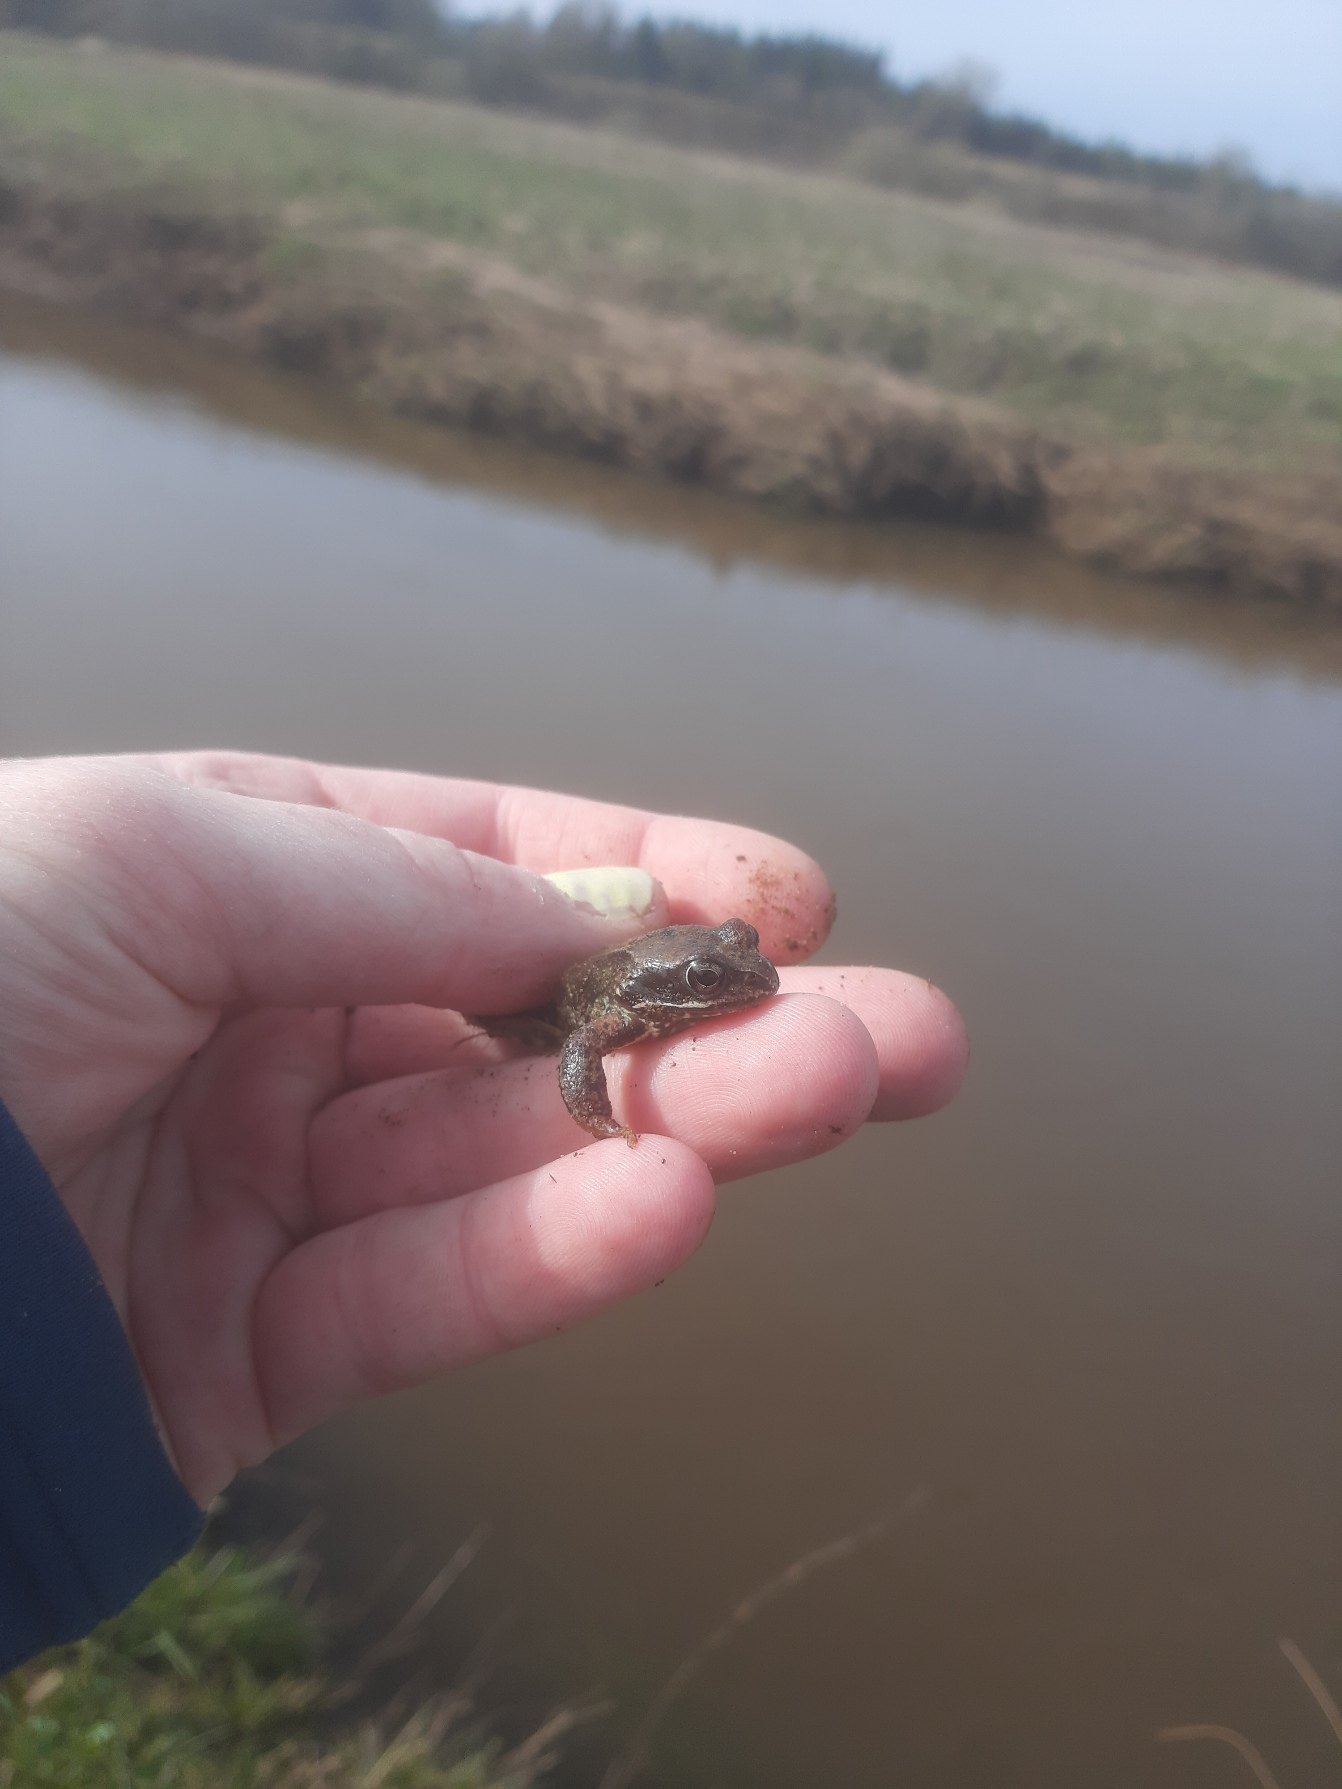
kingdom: Animalia
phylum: Chordata
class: Amphibia
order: Anura
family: Ranidae
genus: Rana
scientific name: Rana temporaria
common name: Butsnudet frø
